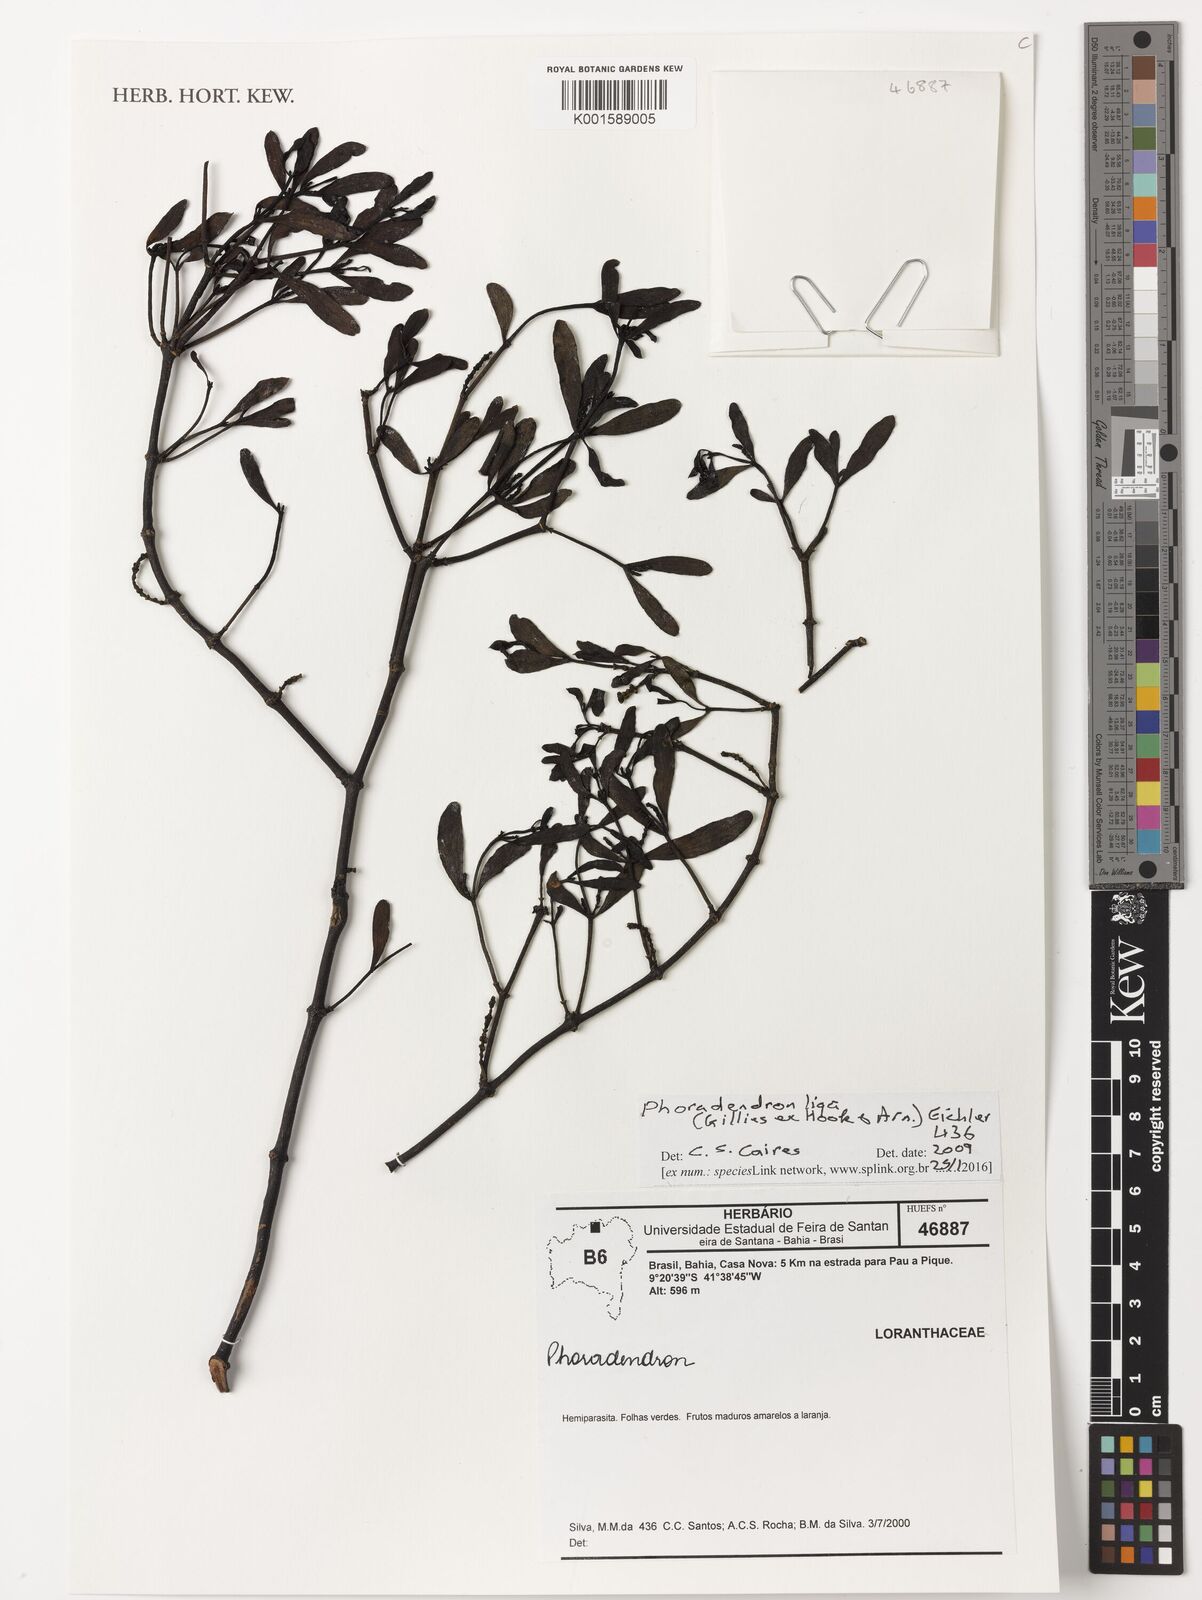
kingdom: Plantae
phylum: Tracheophyta
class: Magnoliopsida
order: Santalales
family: Viscaceae
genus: Phoradendron
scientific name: Phoradendron liga
